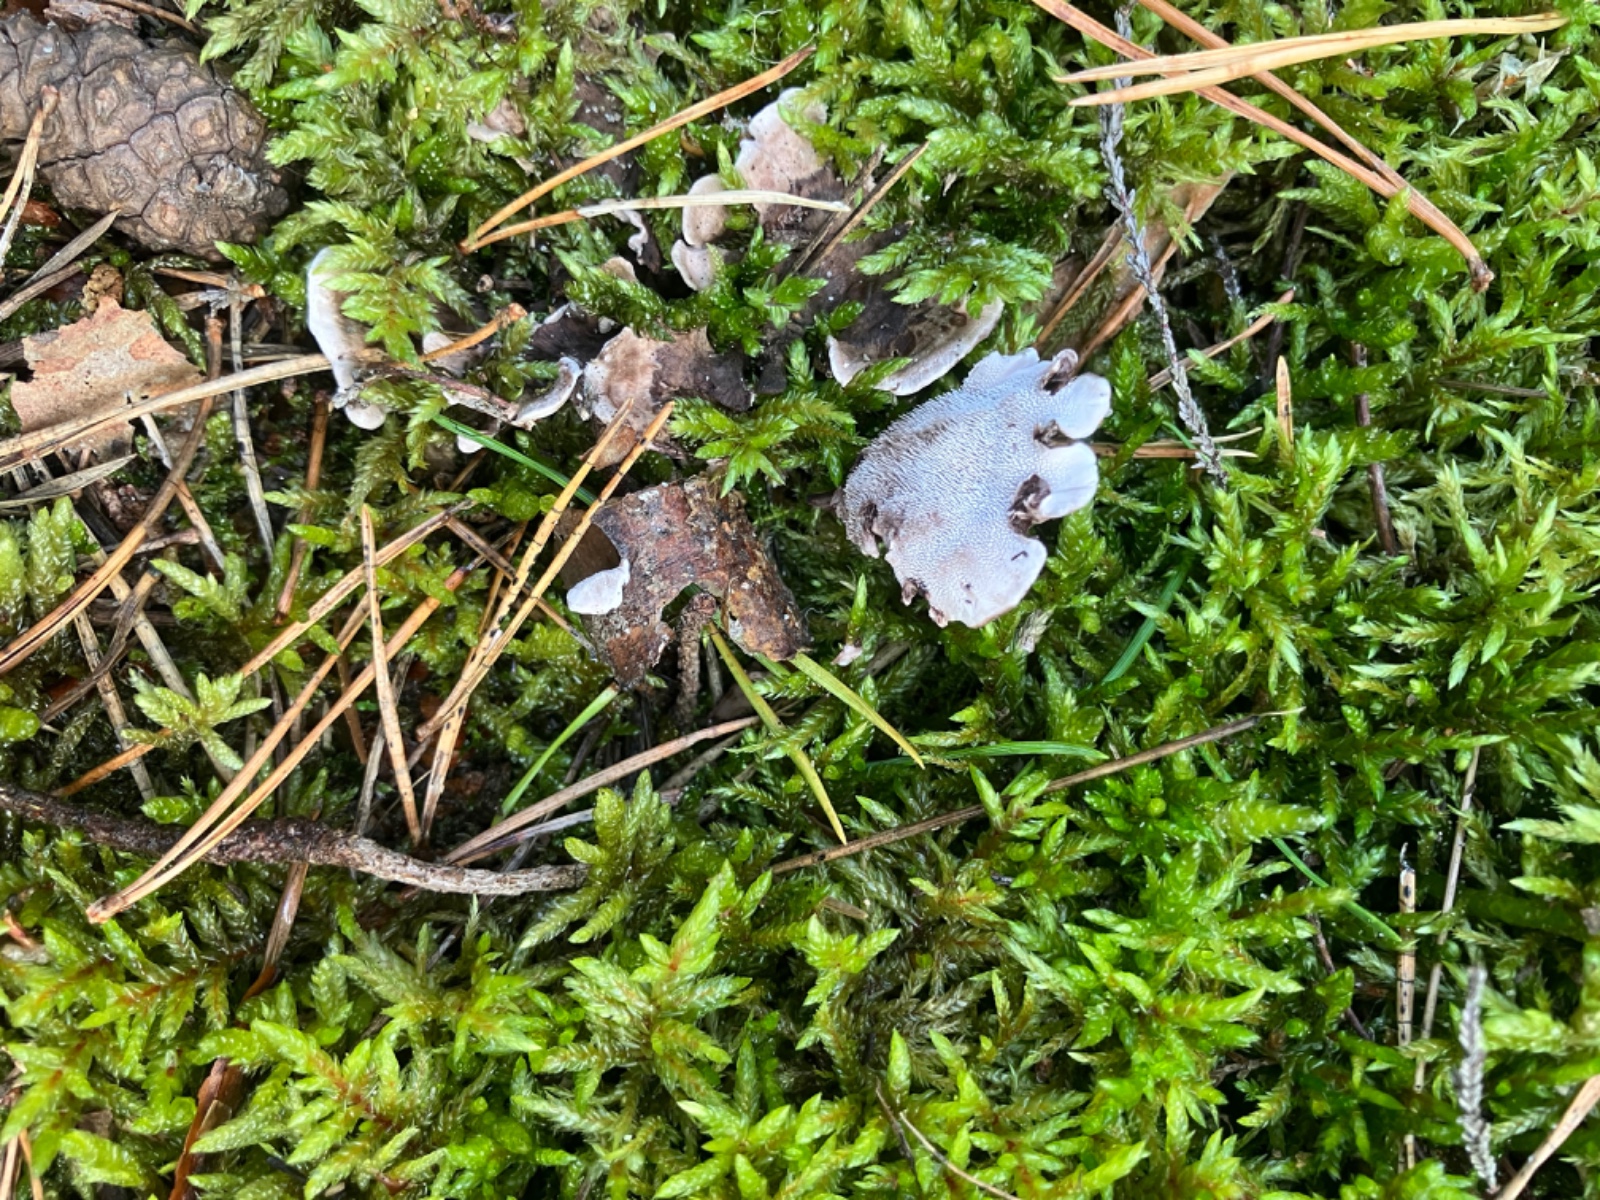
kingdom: Fungi
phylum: Basidiomycota
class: Agaricomycetes
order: Thelephorales
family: Thelephoraceae
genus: Phellodon
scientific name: Phellodon tomentosus
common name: vellugtende duftpigsvamp
